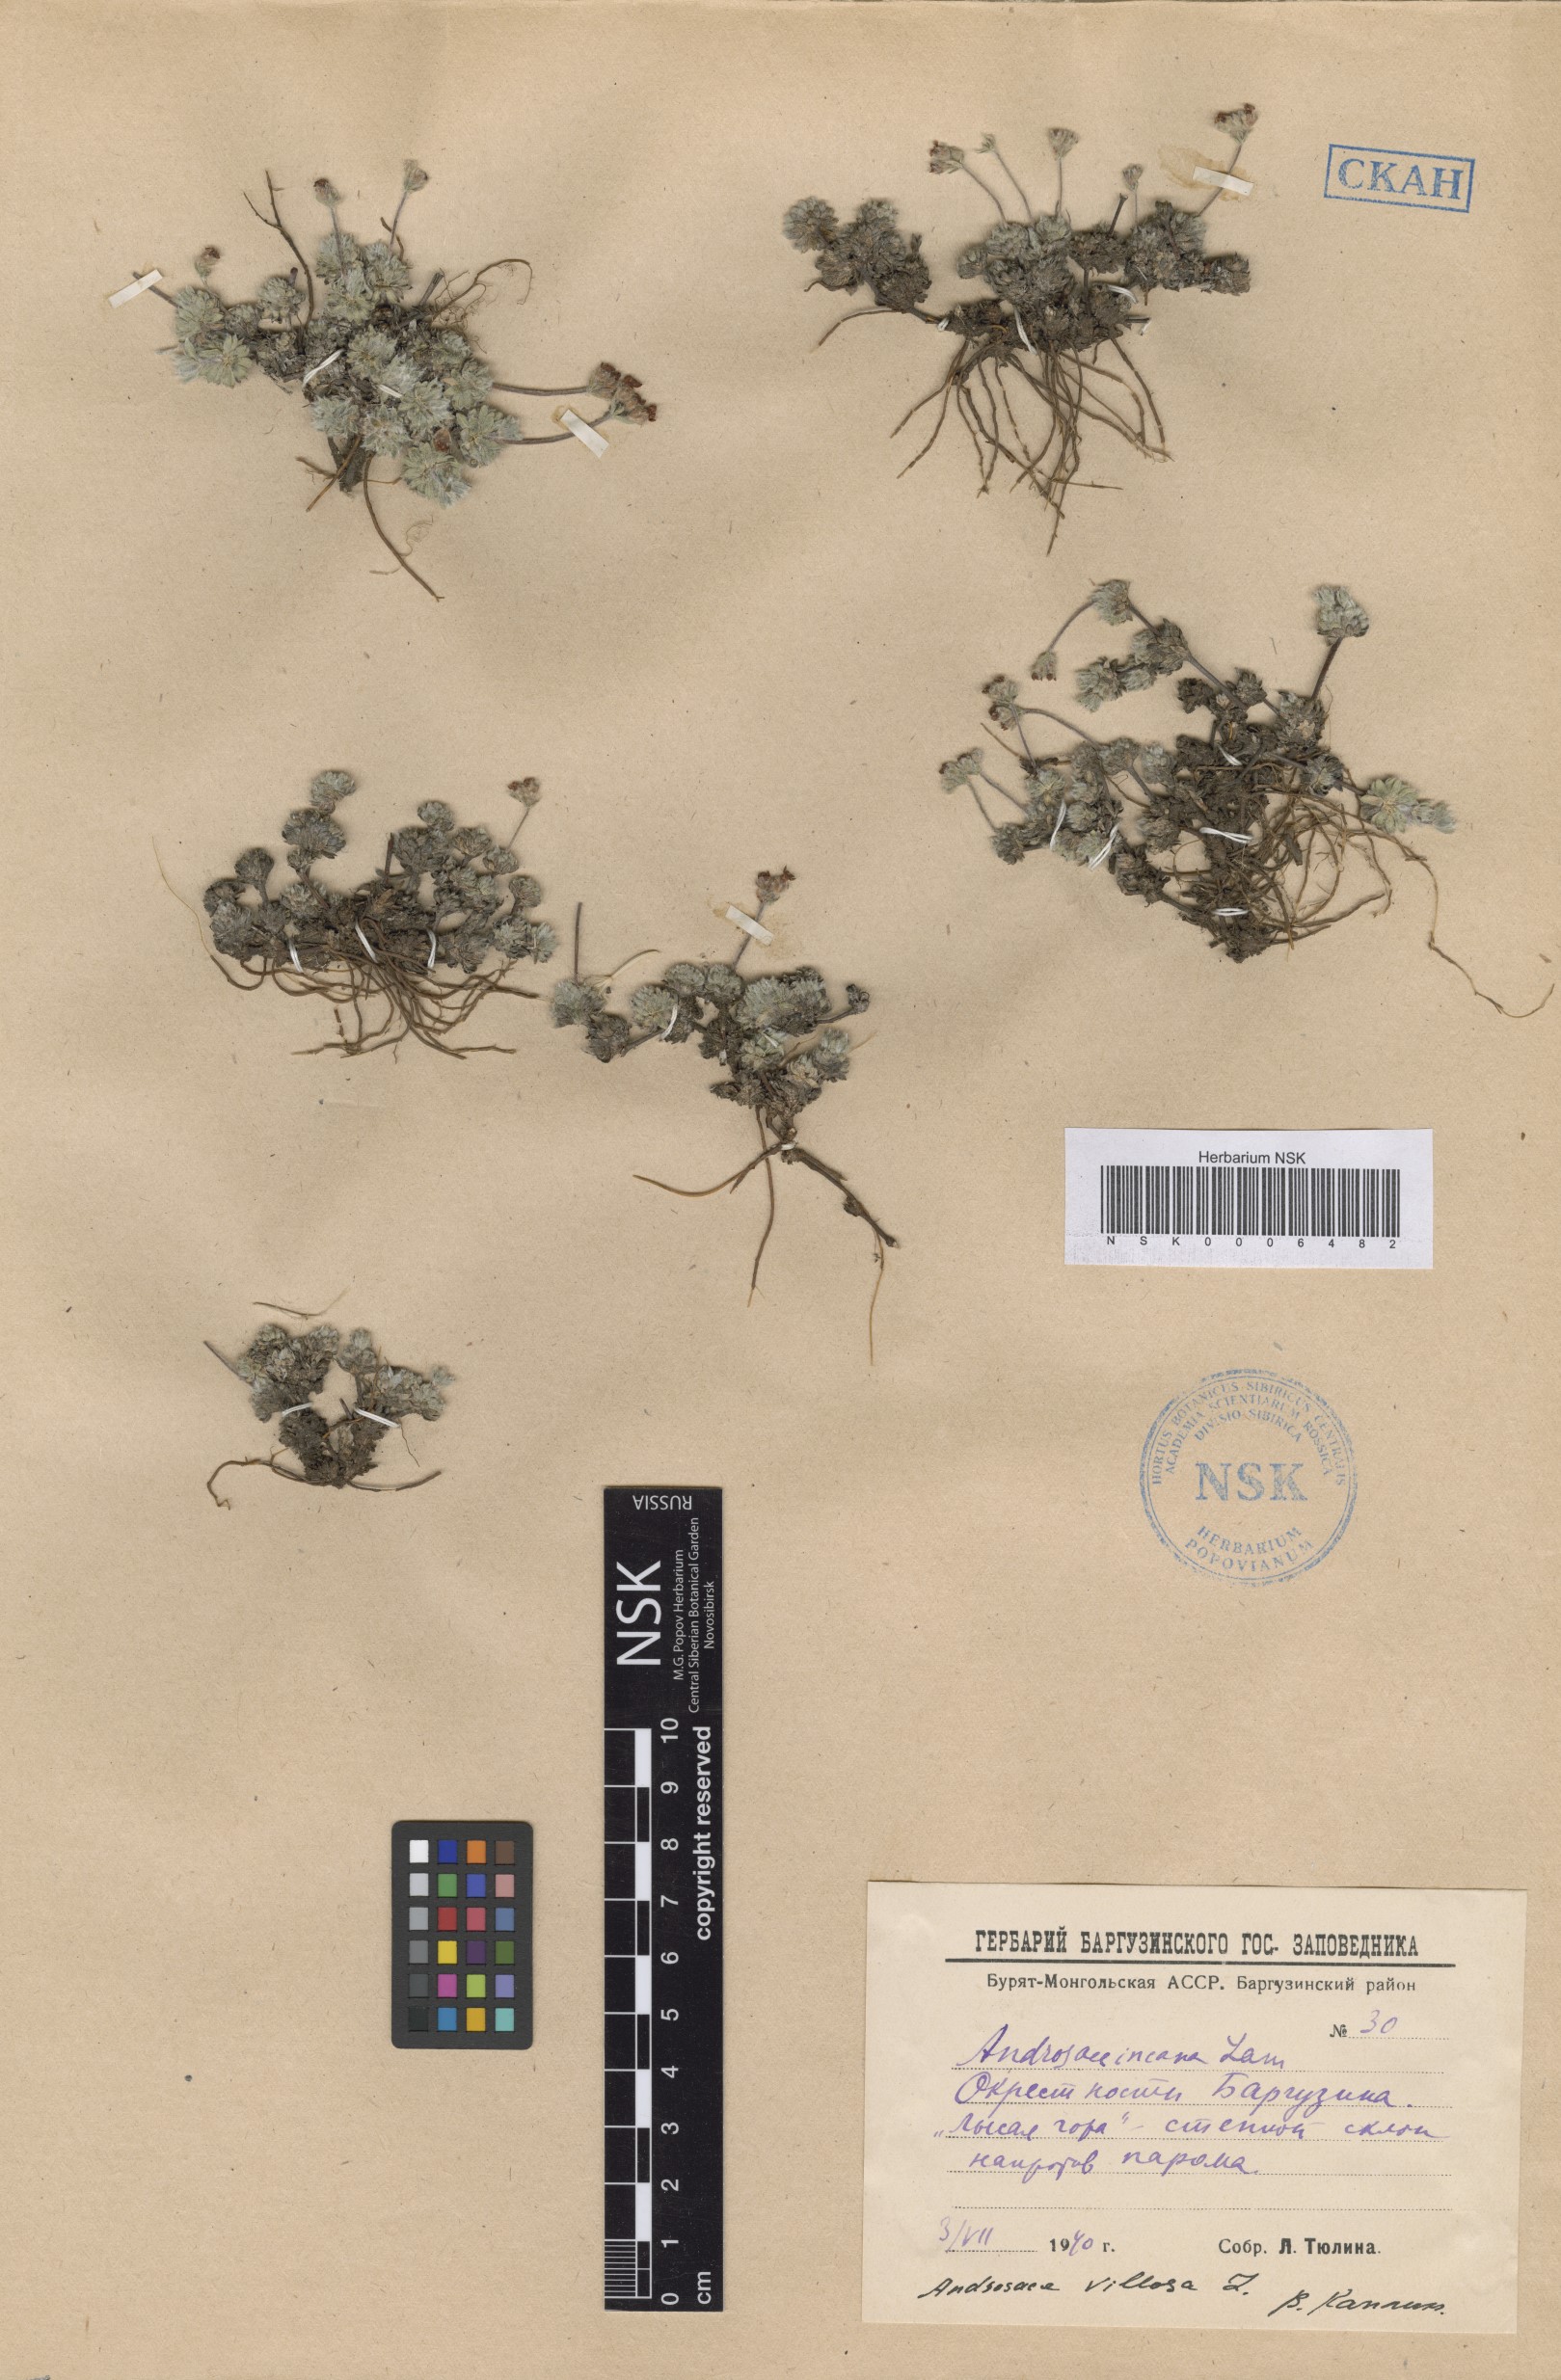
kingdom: Plantae
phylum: Tracheophyta
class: Magnoliopsida
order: Ericales
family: Primulaceae
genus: Androsace
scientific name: Androsace incana
